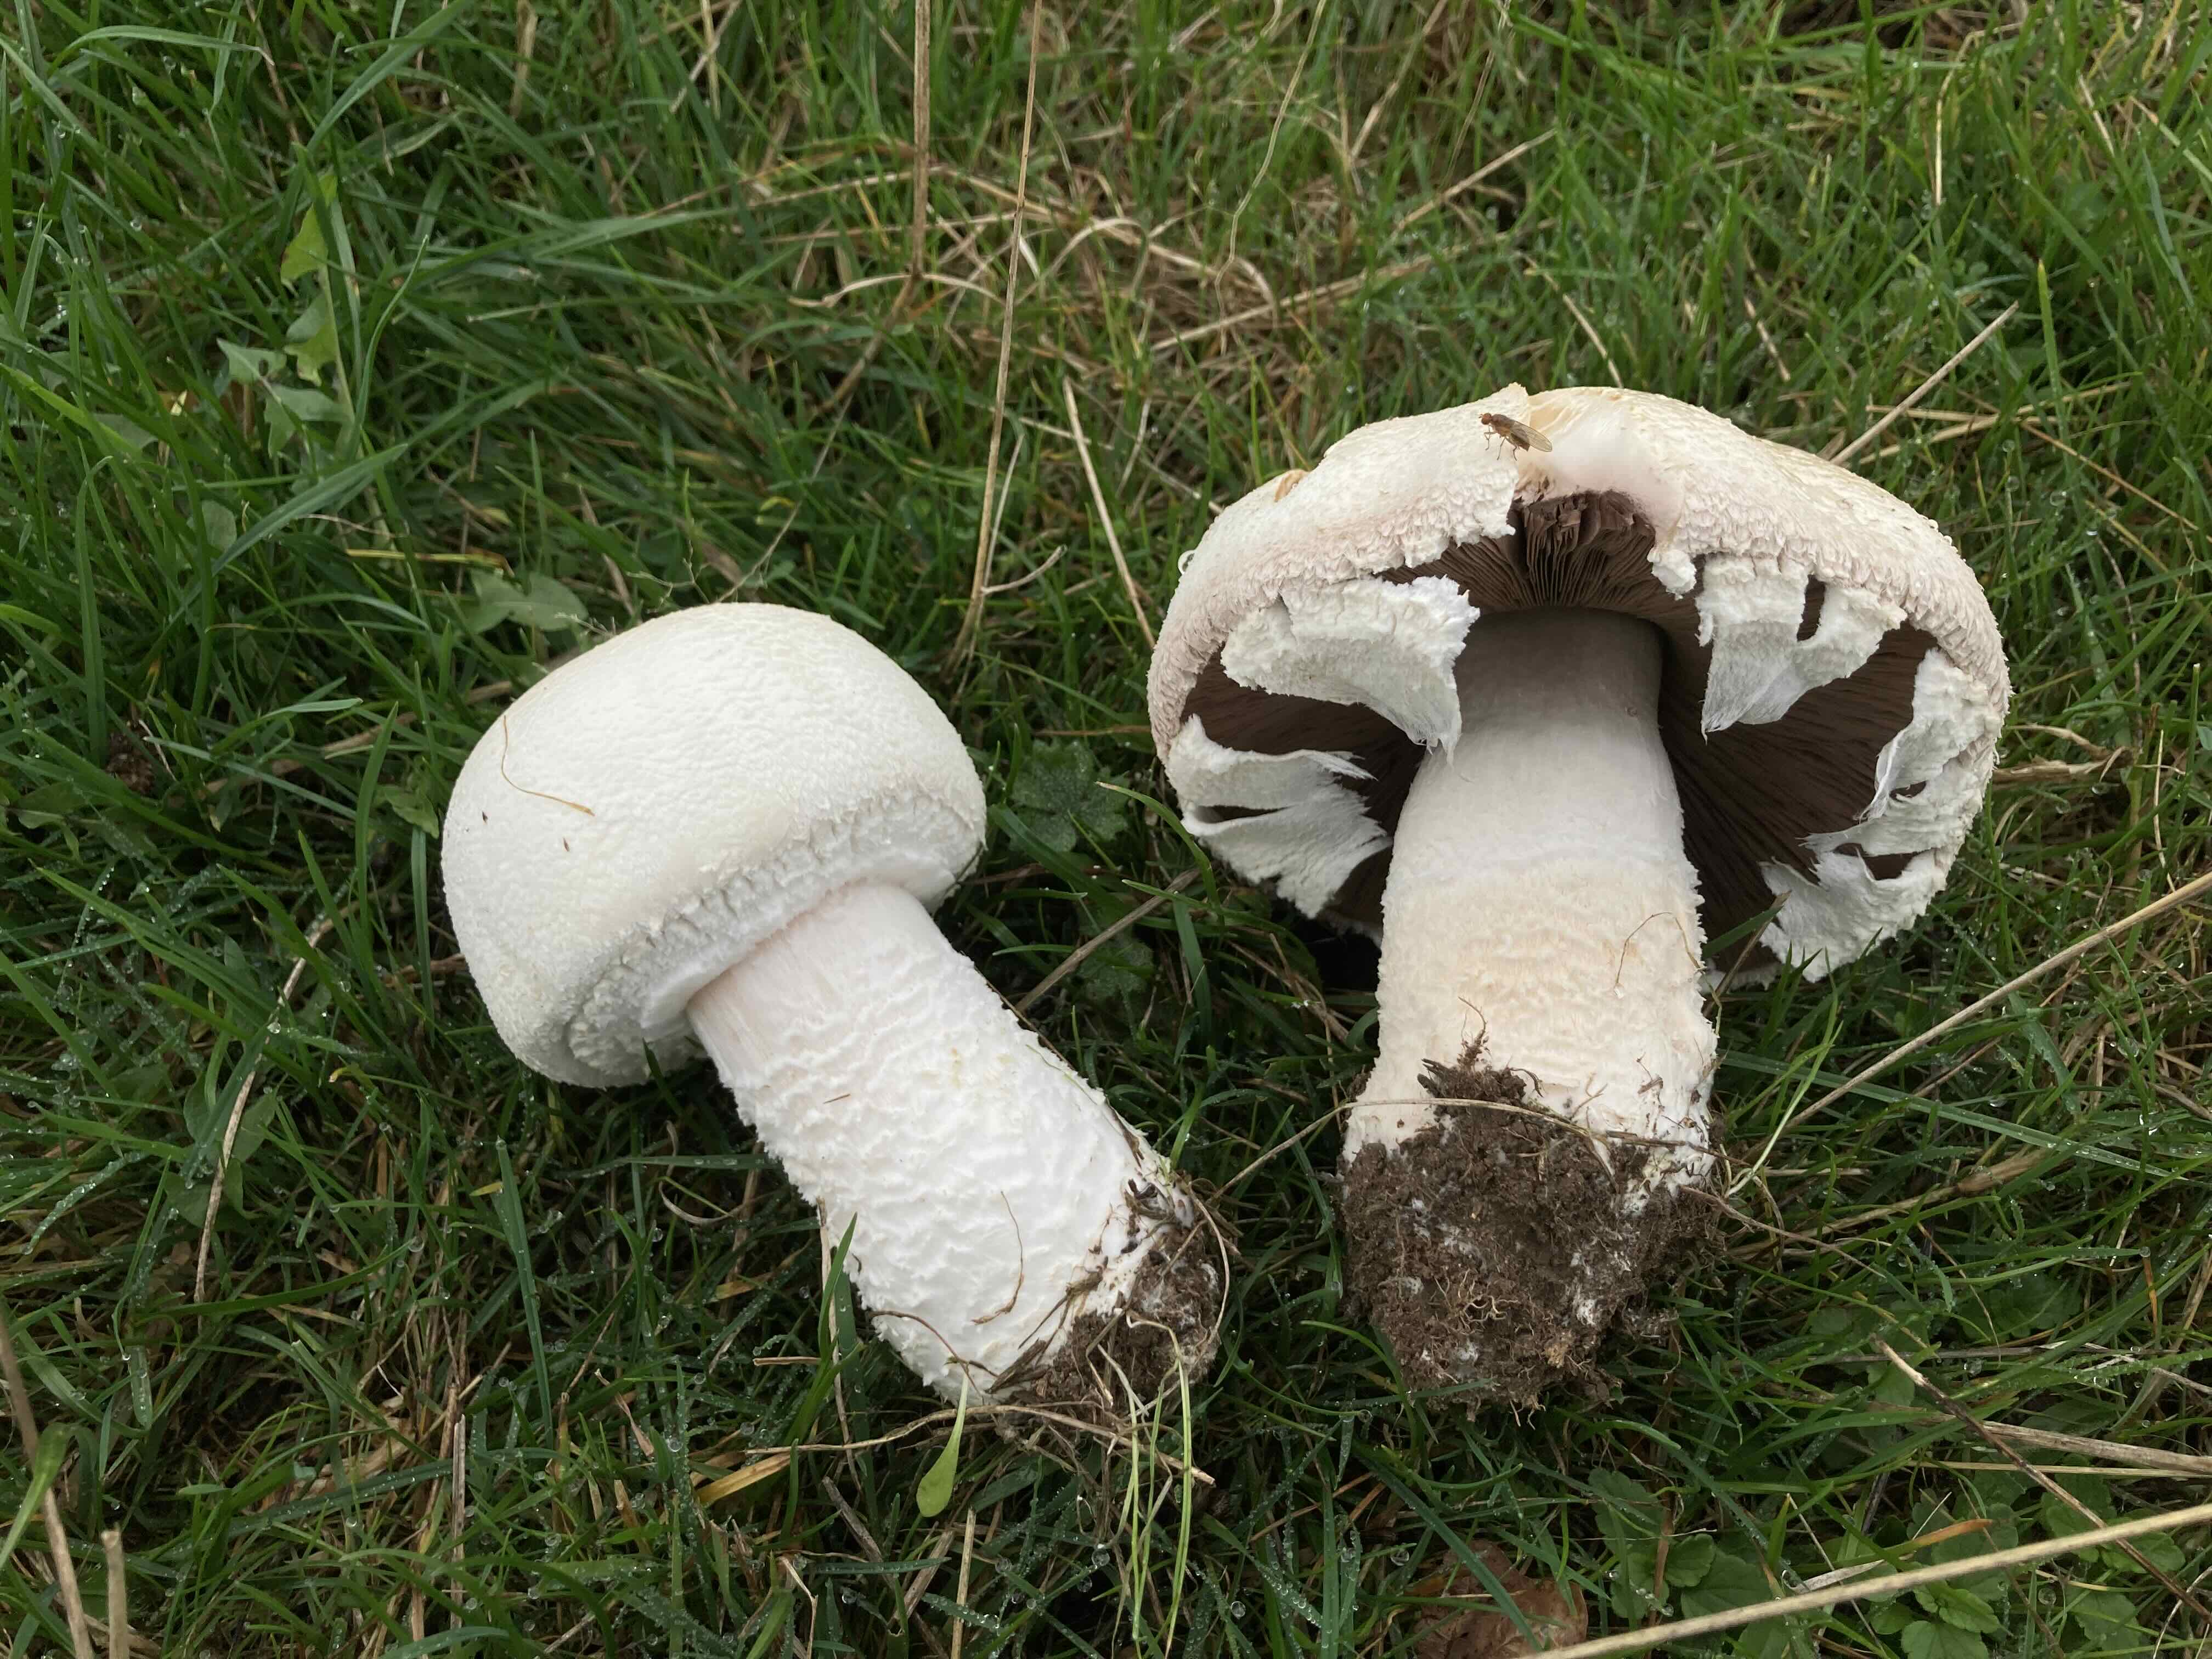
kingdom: Fungi
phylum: Basidiomycota
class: Agaricomycetes
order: Agaricales
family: Agaricaceae
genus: Agaricus
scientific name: Agaricus crocodilinus
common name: landsby-champignon
